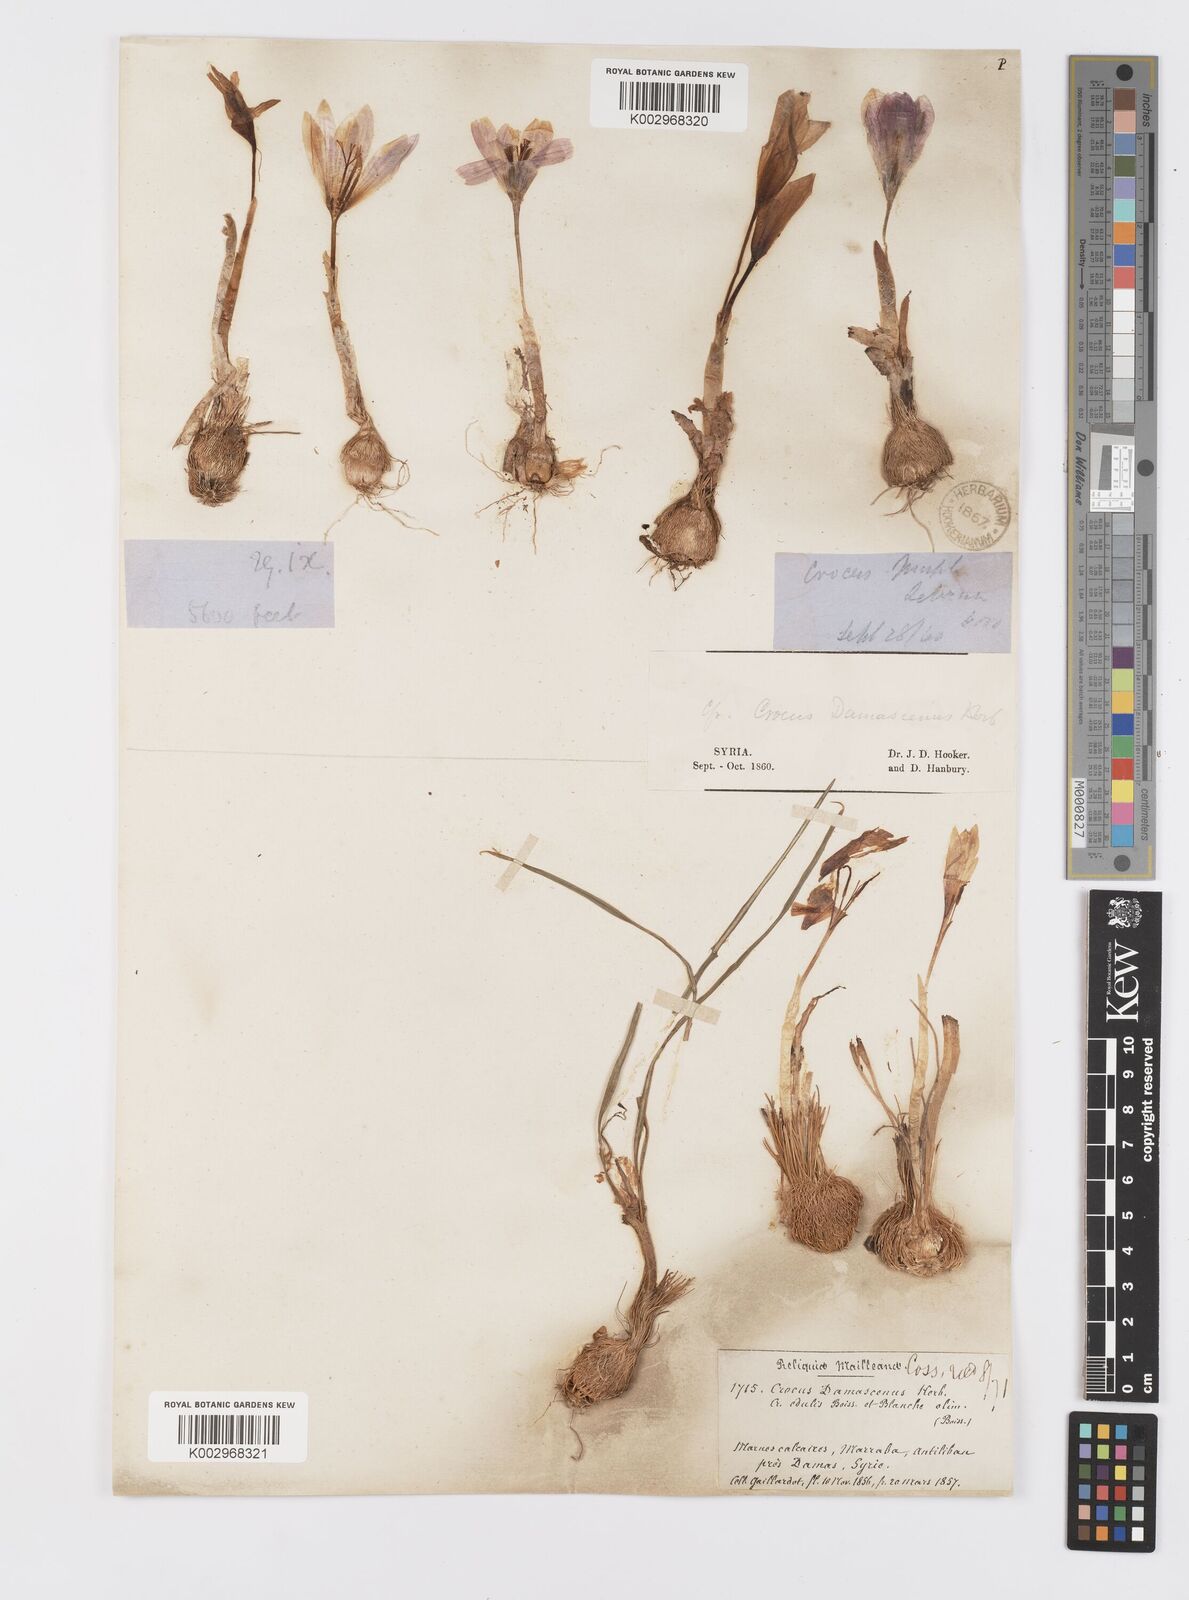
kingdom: Plantae
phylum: Tracheophyta
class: Liliopsida
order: Asparagales
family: Iridaceae
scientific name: Iridaceae
